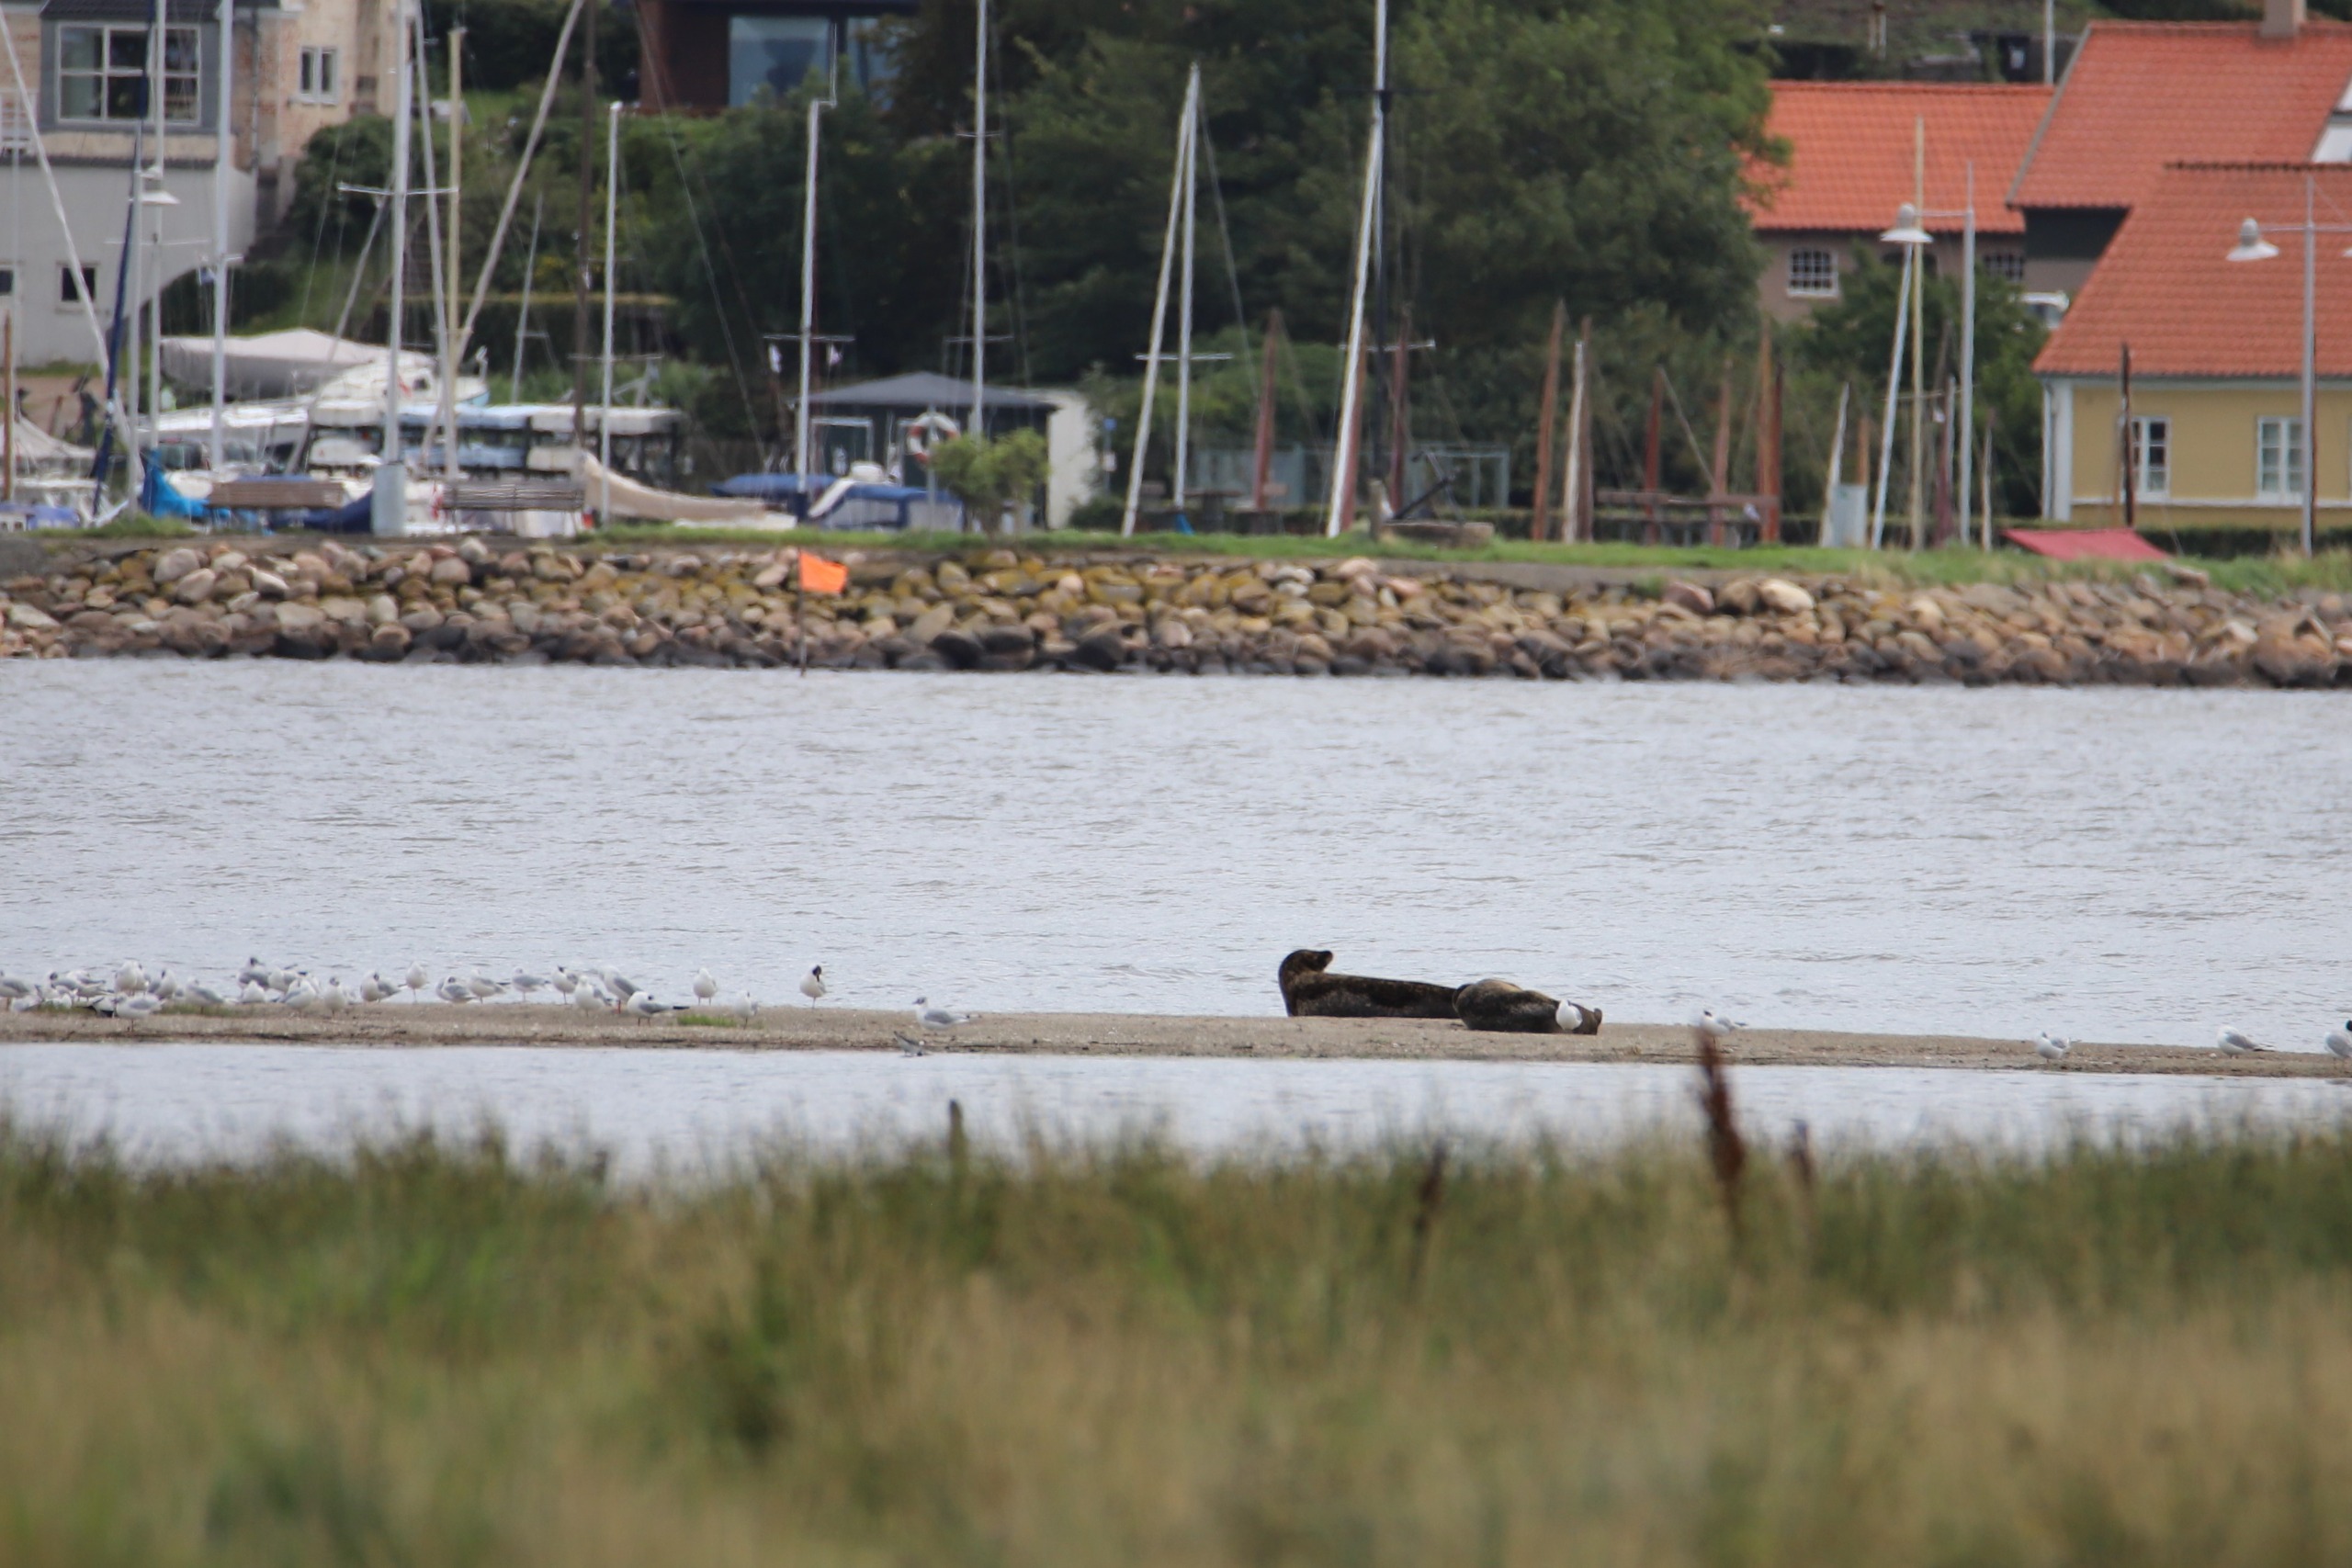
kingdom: Animalia
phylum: Chordata
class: Mammalia
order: Carnivora
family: Phocidae
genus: Phoca
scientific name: Phoca vitulina
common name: Spættet sæl
